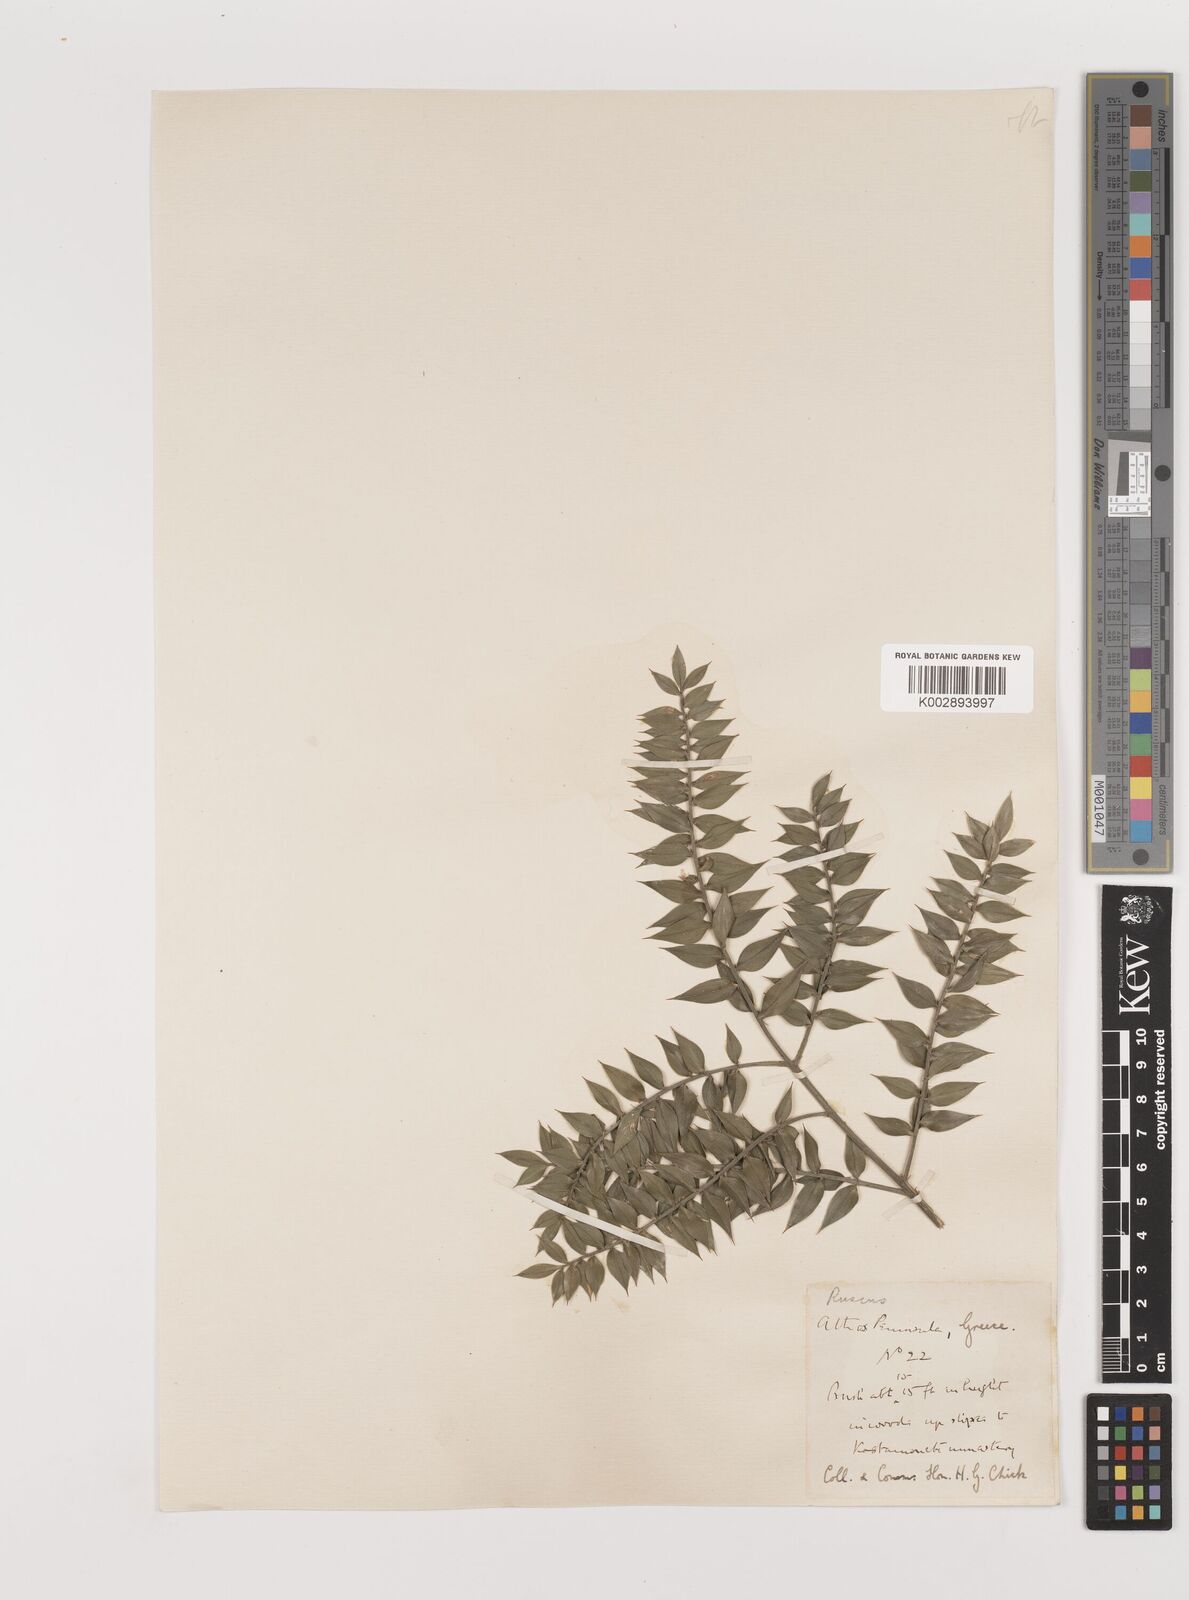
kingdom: Plantae
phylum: Tracheophyta
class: Liliopsida
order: Asparagales
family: Asparagaceae
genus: Ruscus
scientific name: Ruscus aculeatus
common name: Butcher's-broom
